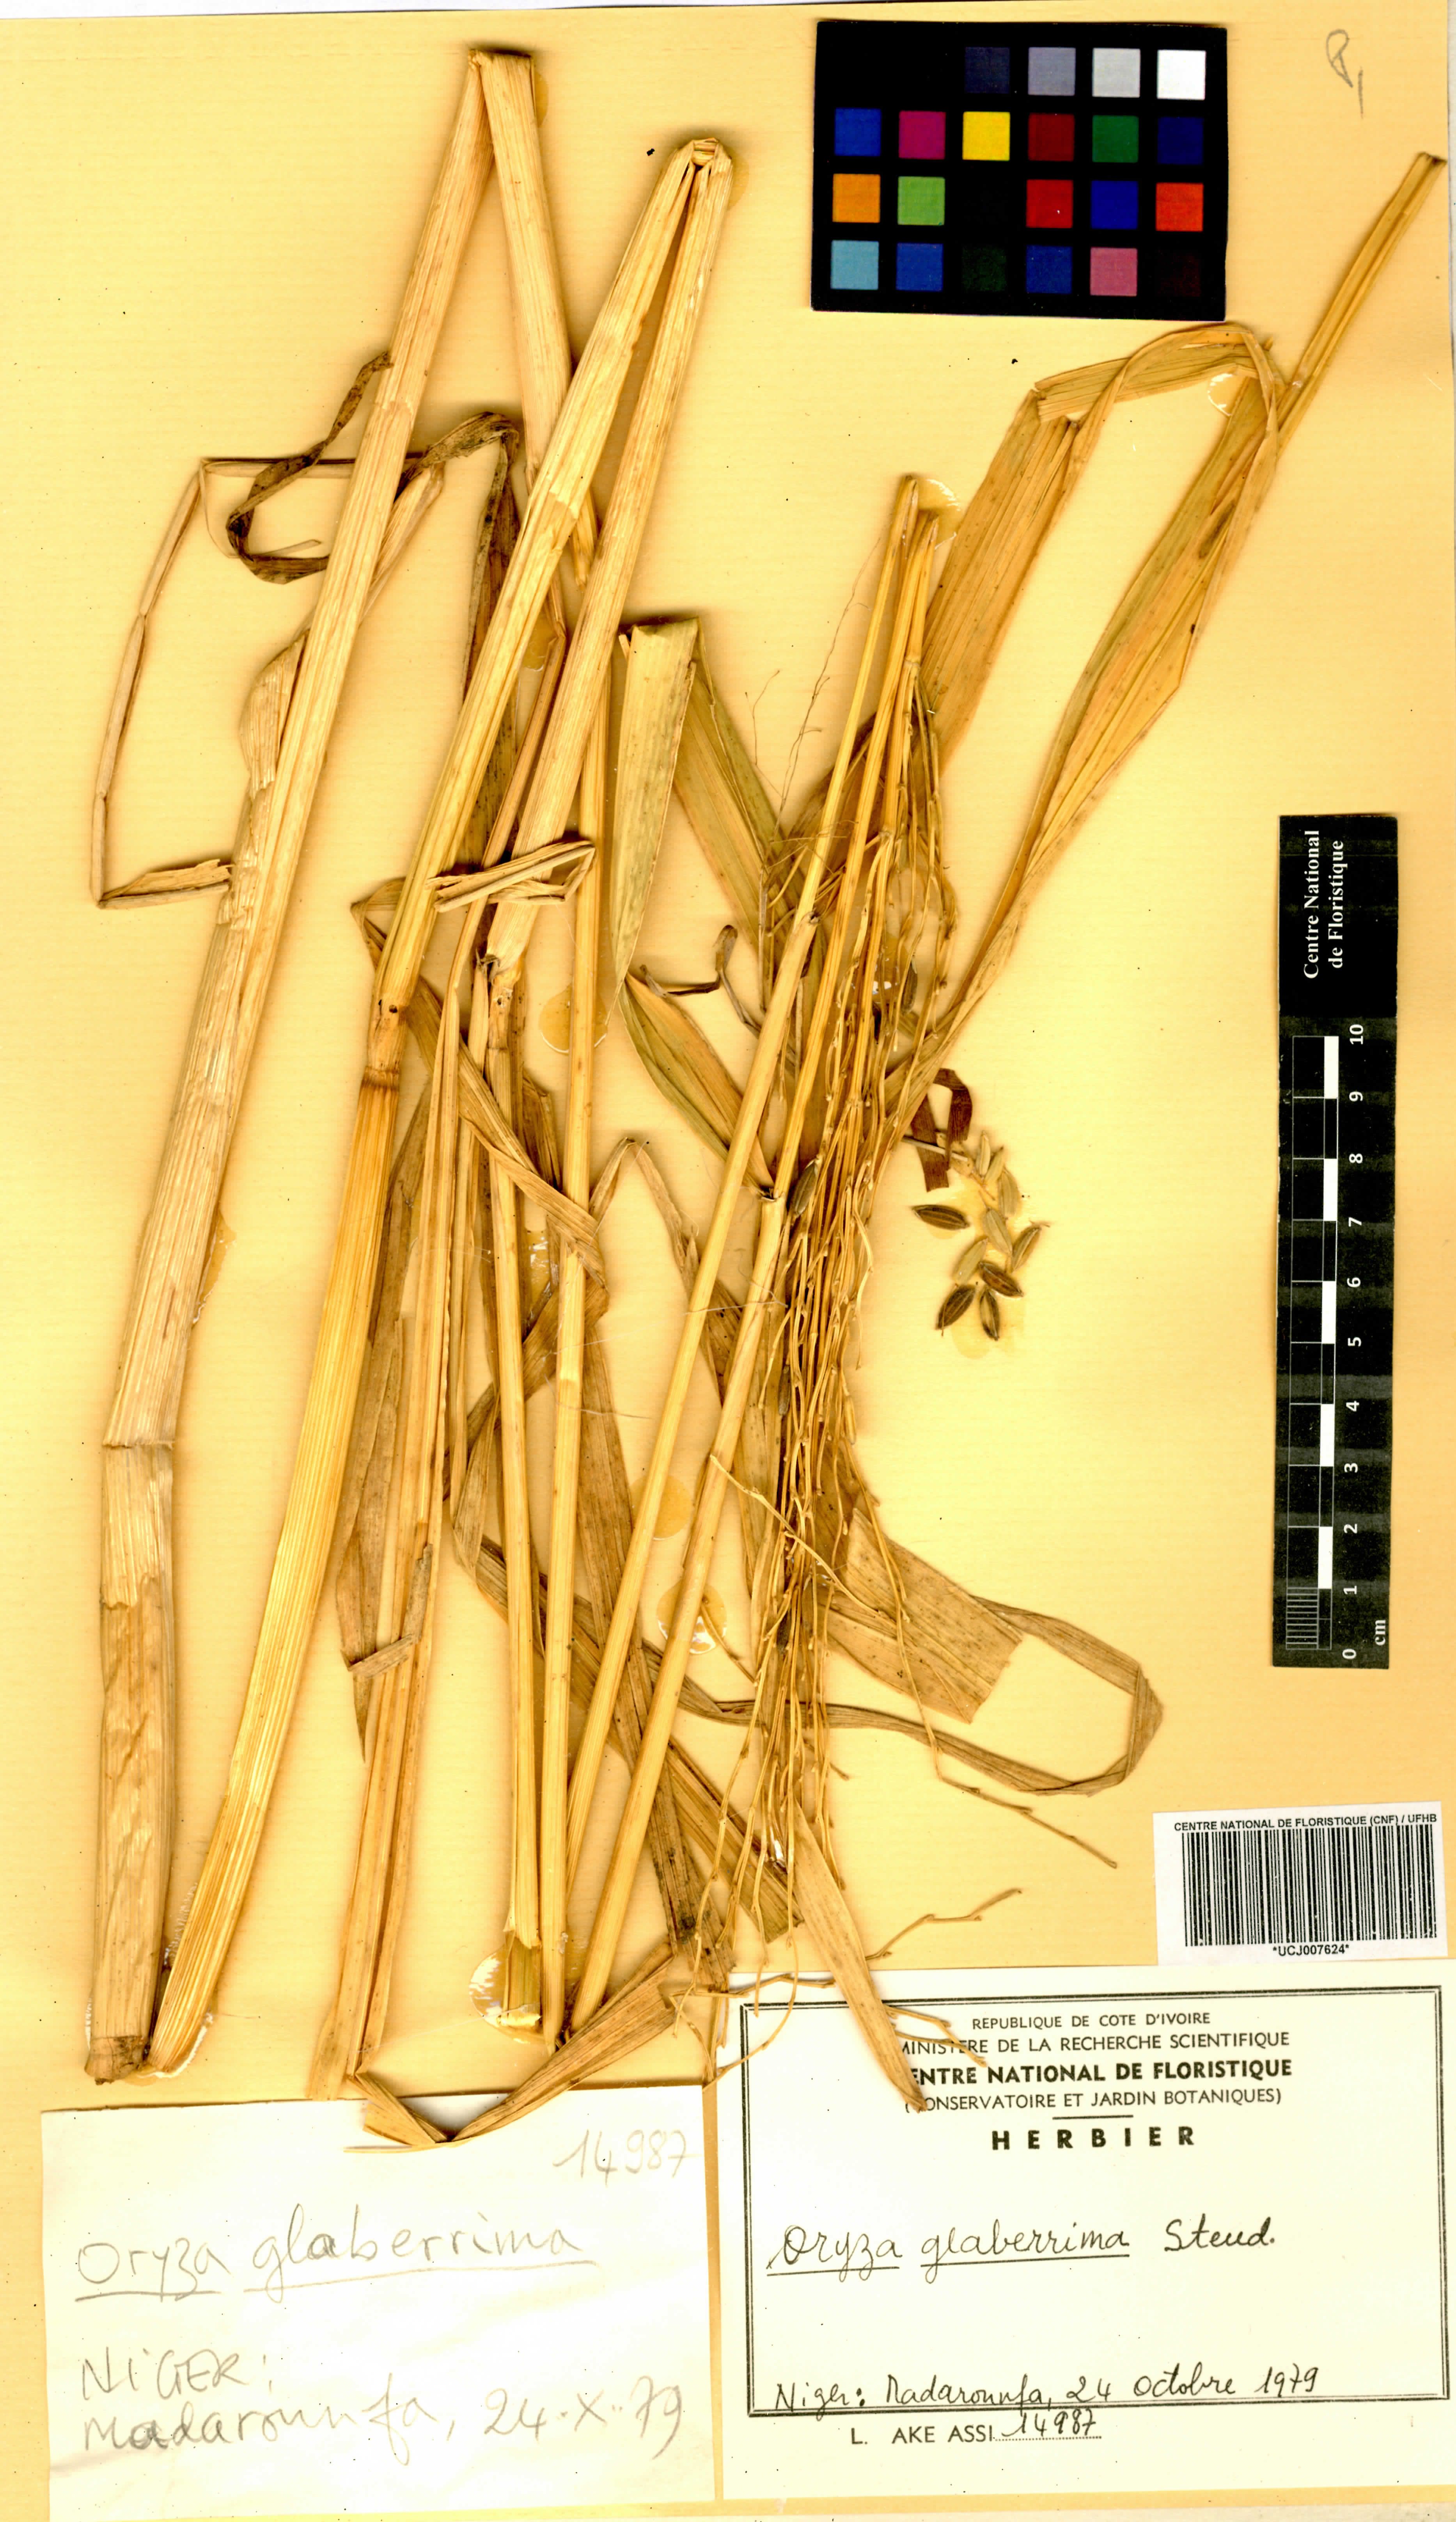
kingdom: Plantae
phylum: Tracheophyta
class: Liliopsida
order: Poales
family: Poaceae
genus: Oryza
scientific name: Oryza glaberrima
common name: African rice
